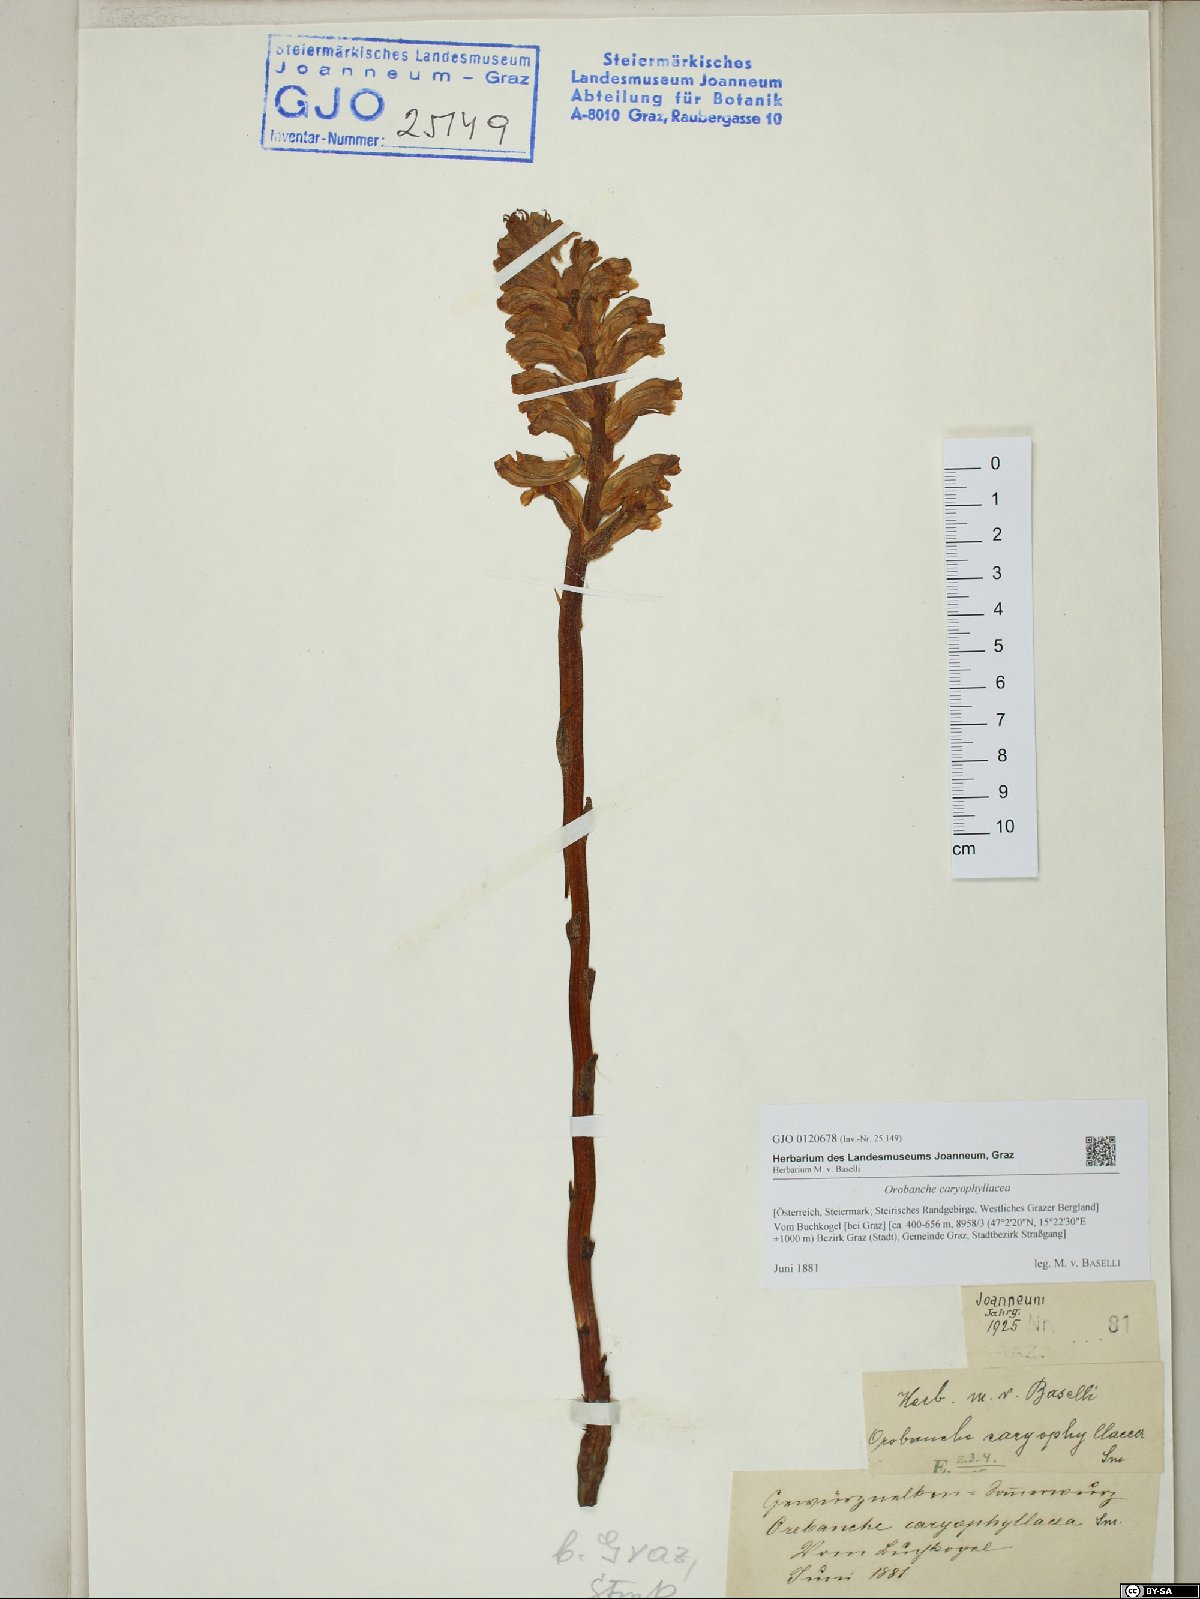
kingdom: Plantae
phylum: Tracheophyta
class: Magnoliopsida
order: Lamiales
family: Orobanchaceae
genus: Orobanche
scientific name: Orobanche caryophyllacea
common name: Bedstraw broomrape
